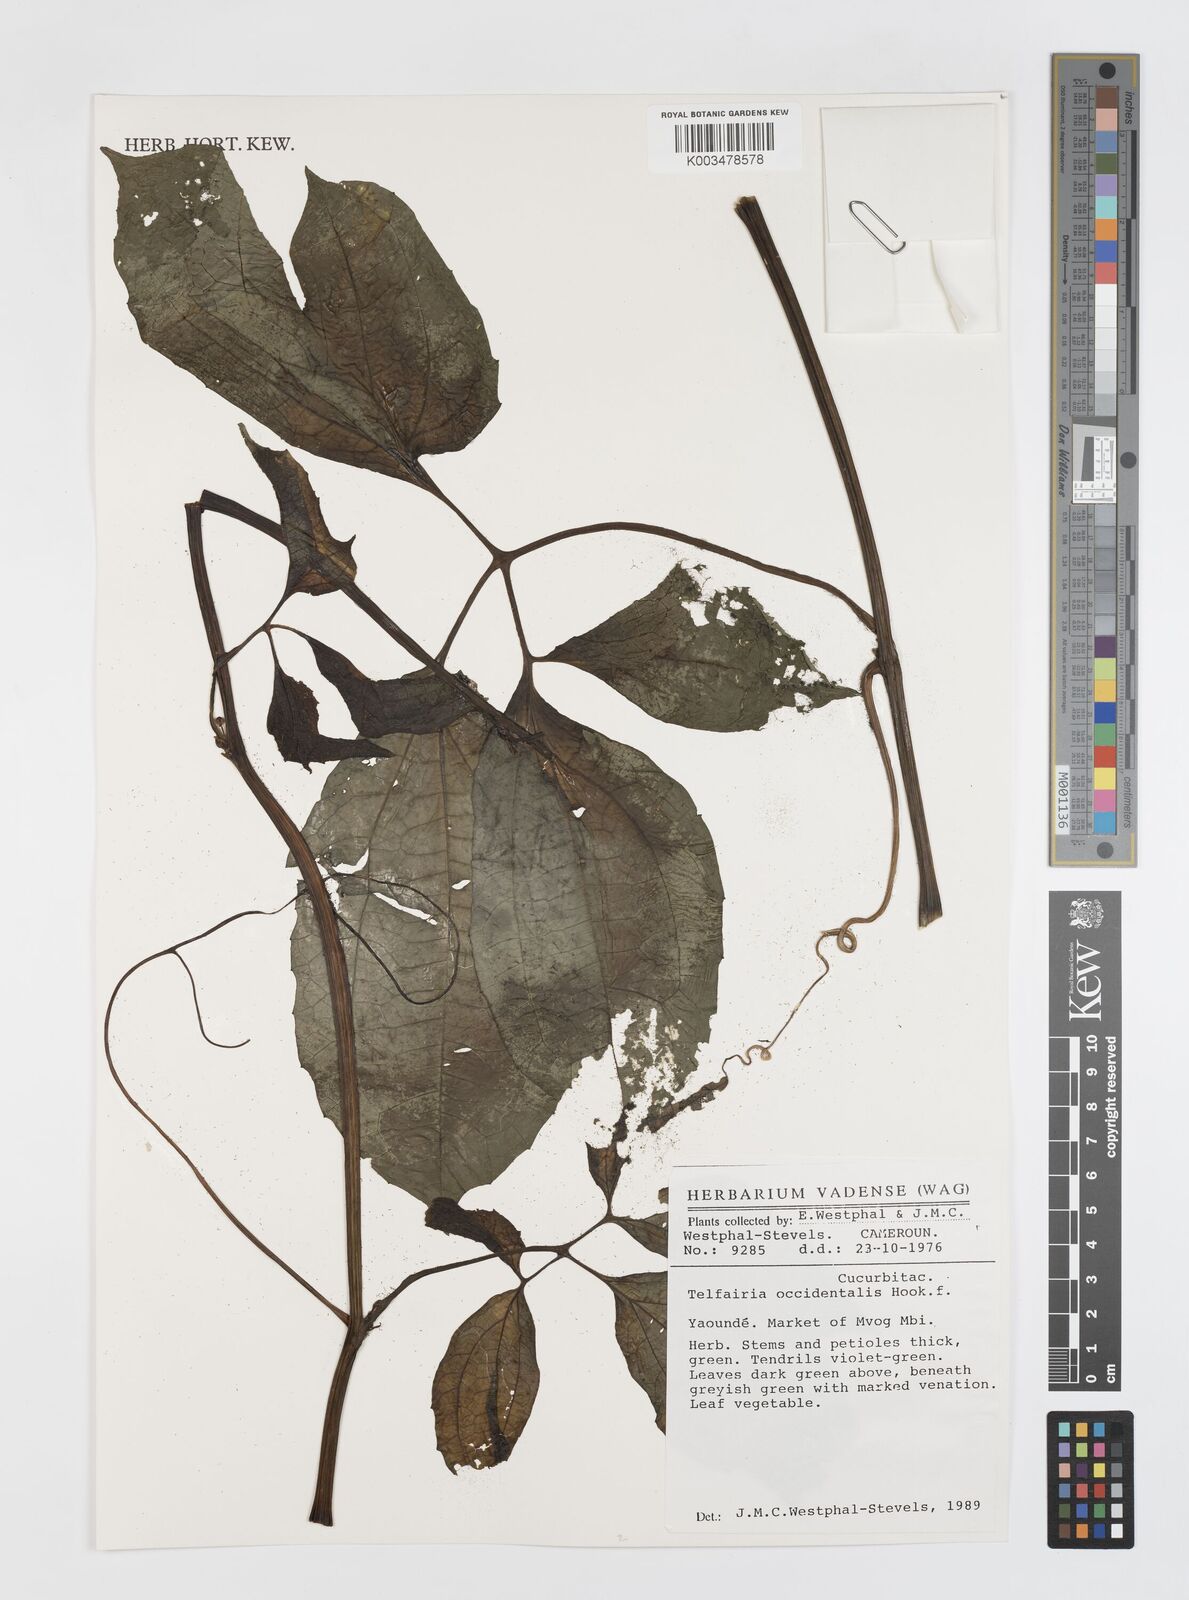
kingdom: Plantae
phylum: Tracheophyta
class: Magnoliopsida
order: Cucurbitales
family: Cucurbitaceae
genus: Telfairia
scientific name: Telfairia occidentalis
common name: Oysternut
